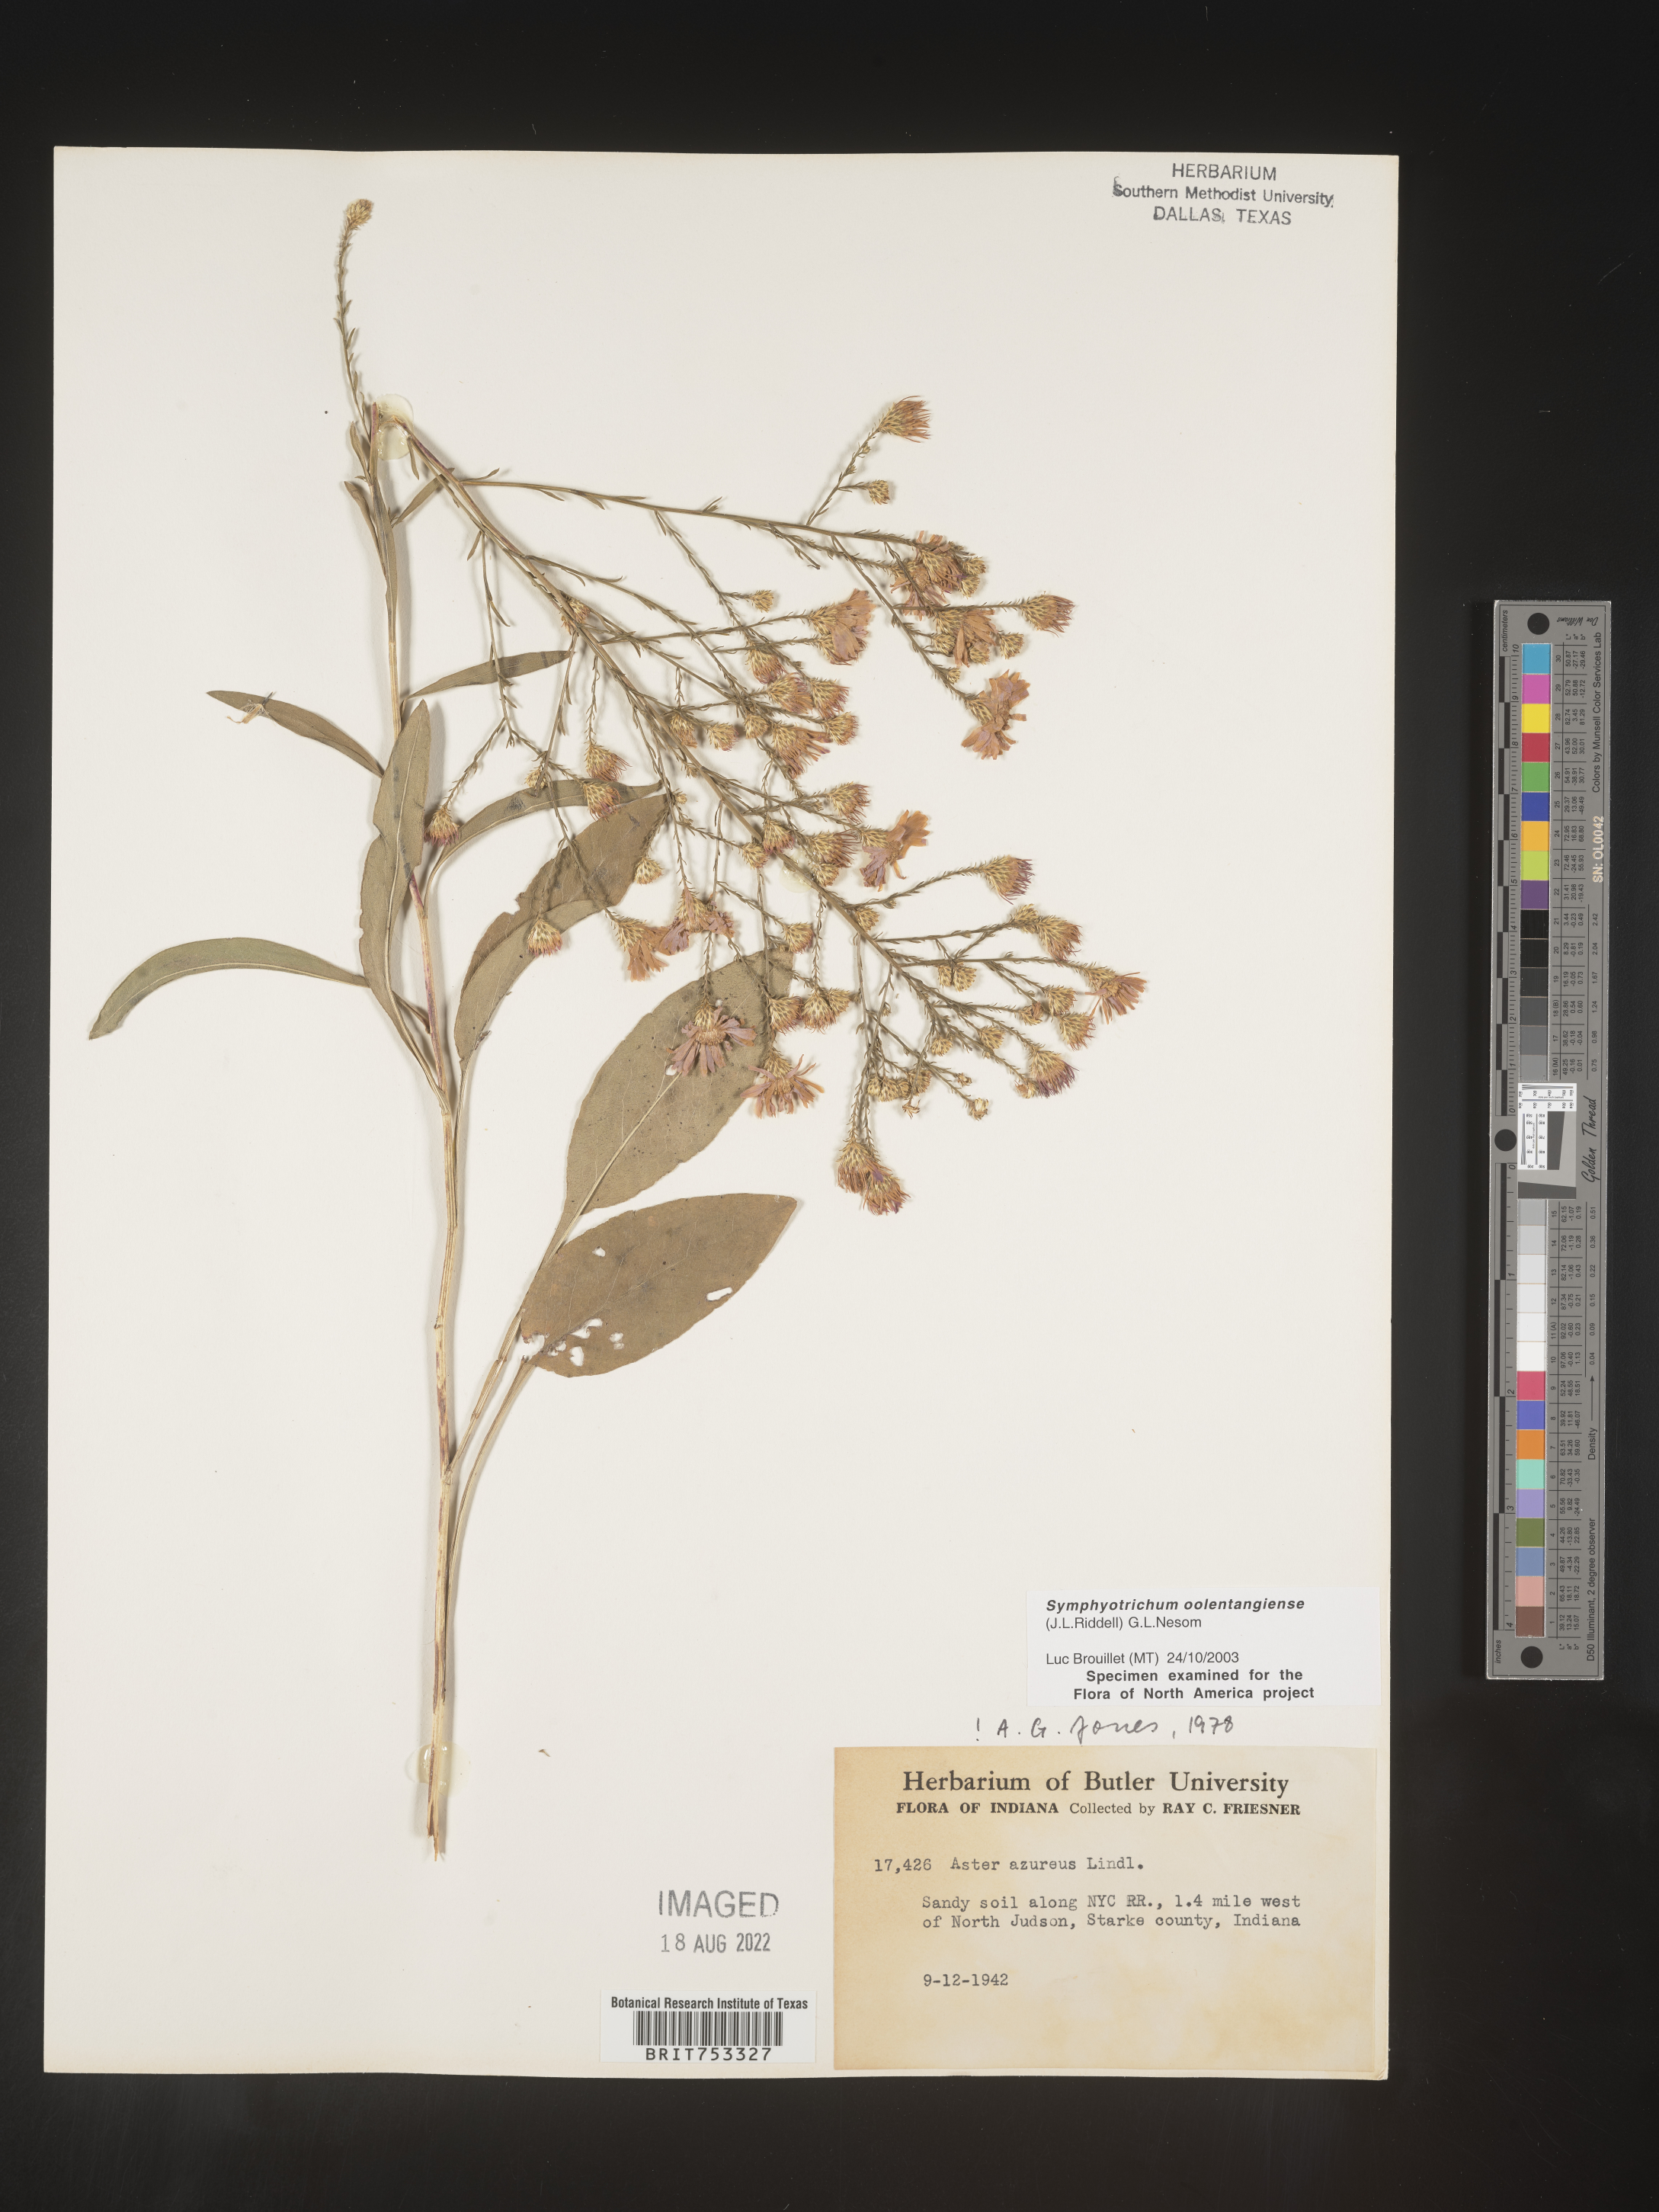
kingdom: Plantae
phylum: Tracheophyta
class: Magnoliopsida
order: Asterales
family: Asteraceae
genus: Symphyotrichum
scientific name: Symphyotrichum oolentangiense
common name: Azure aster
